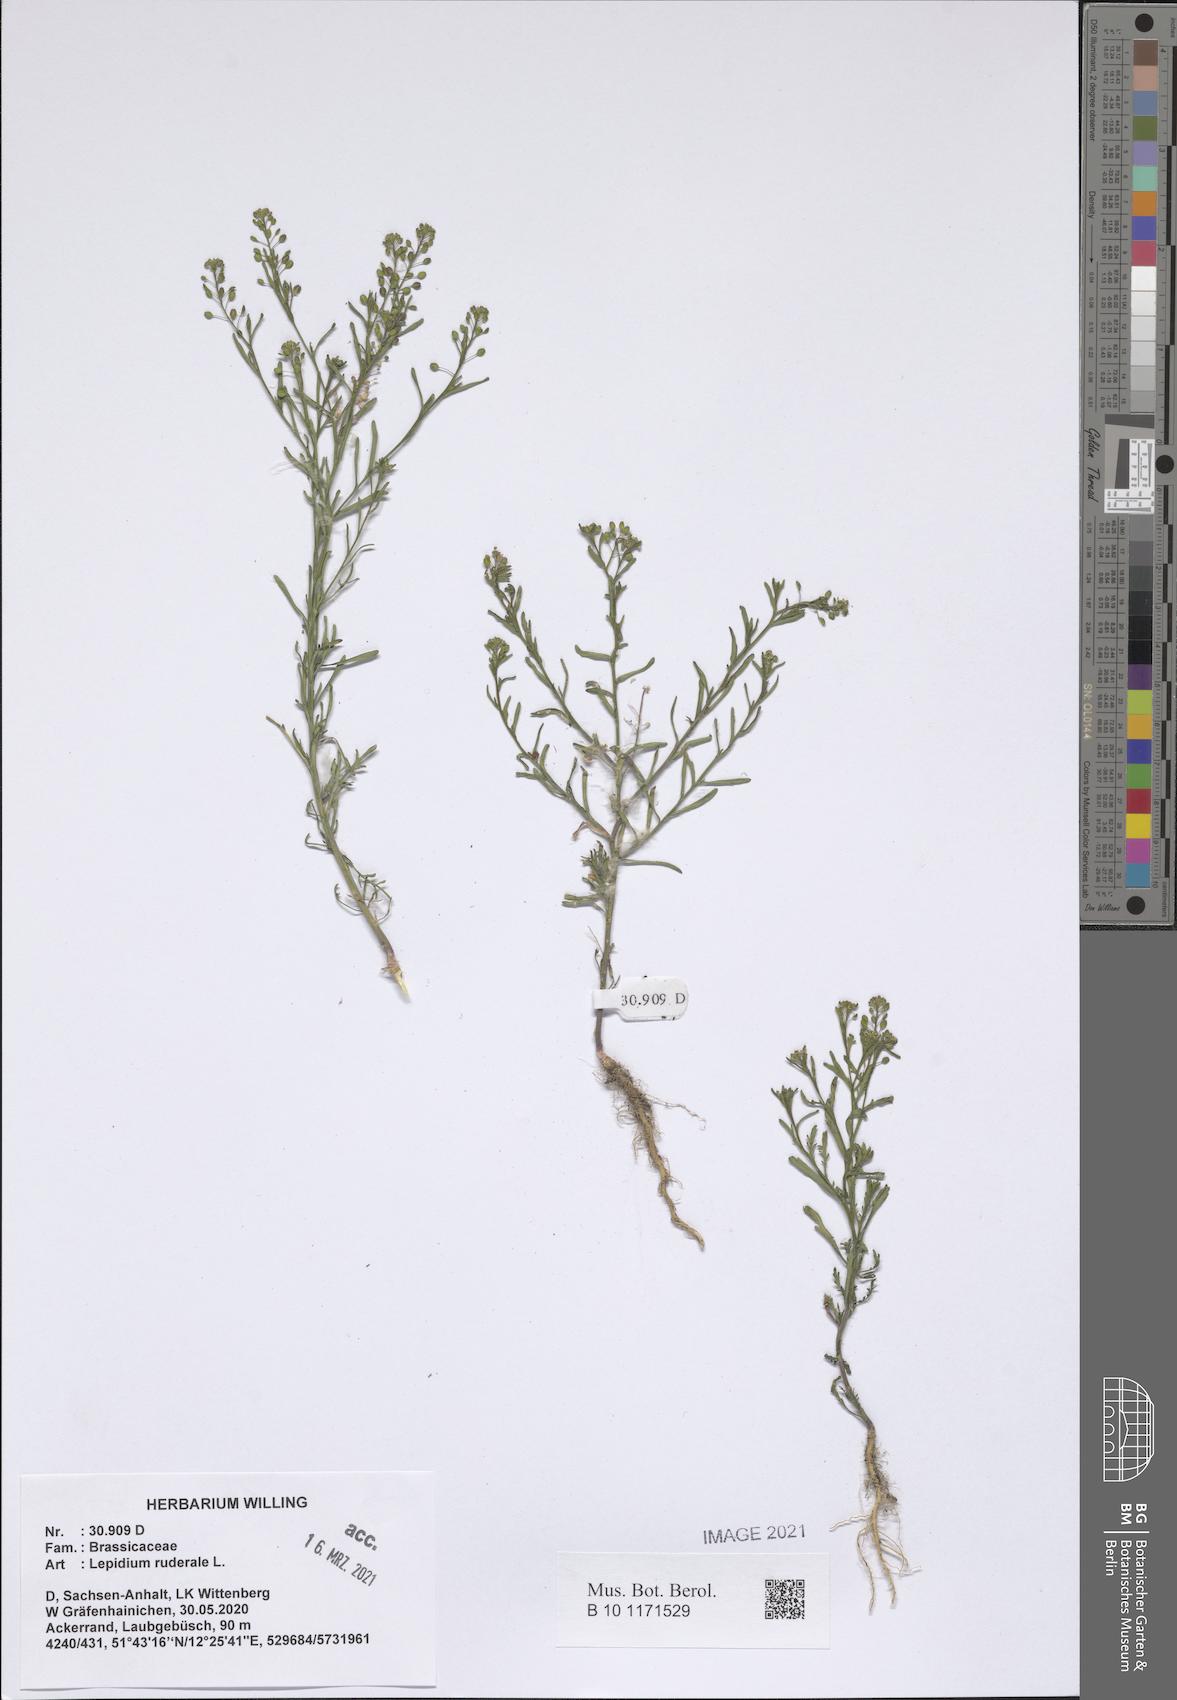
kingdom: Plantae
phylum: Tracheophyta
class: Magnoliopsida
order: Brassicales
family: Brassicaceae
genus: Lepidium
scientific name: Lepidium ruderale
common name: Narrow-leaved pepperwort
